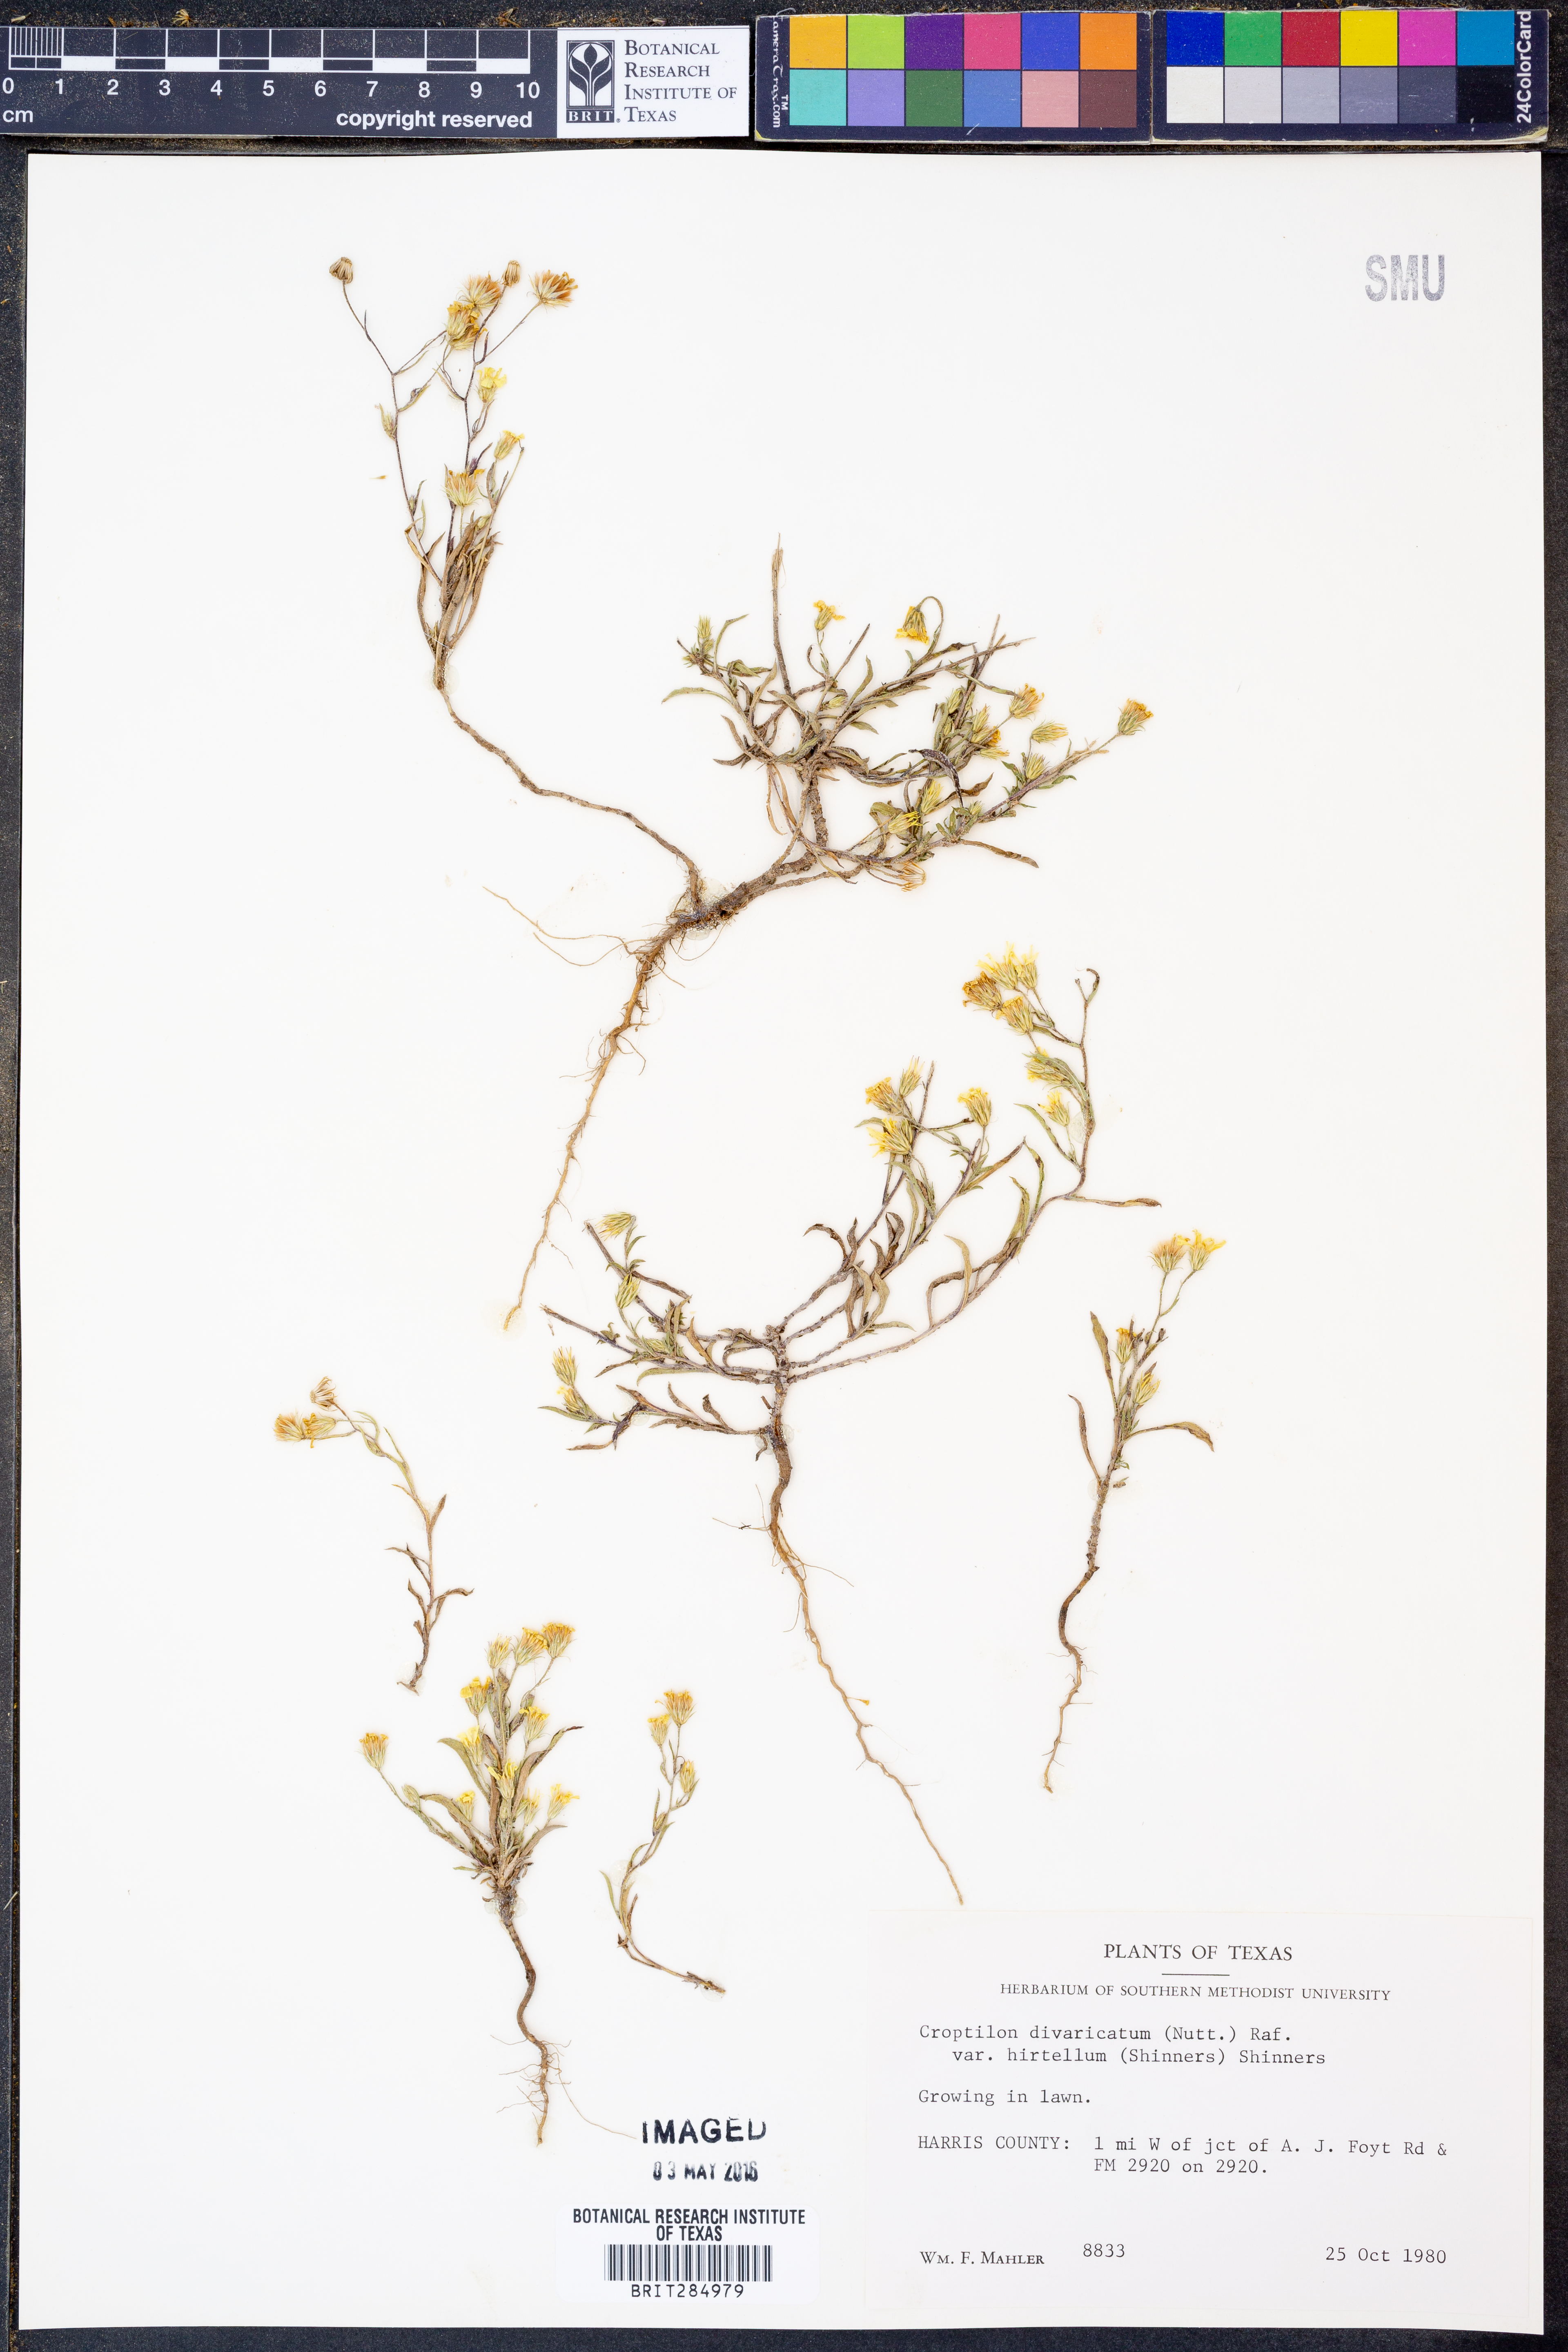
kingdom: Plantae
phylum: Tracheophyta
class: Magnoliopsida
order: Asterales
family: Asteraceae
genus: Croptilon
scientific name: Croptilon rigidifolium
